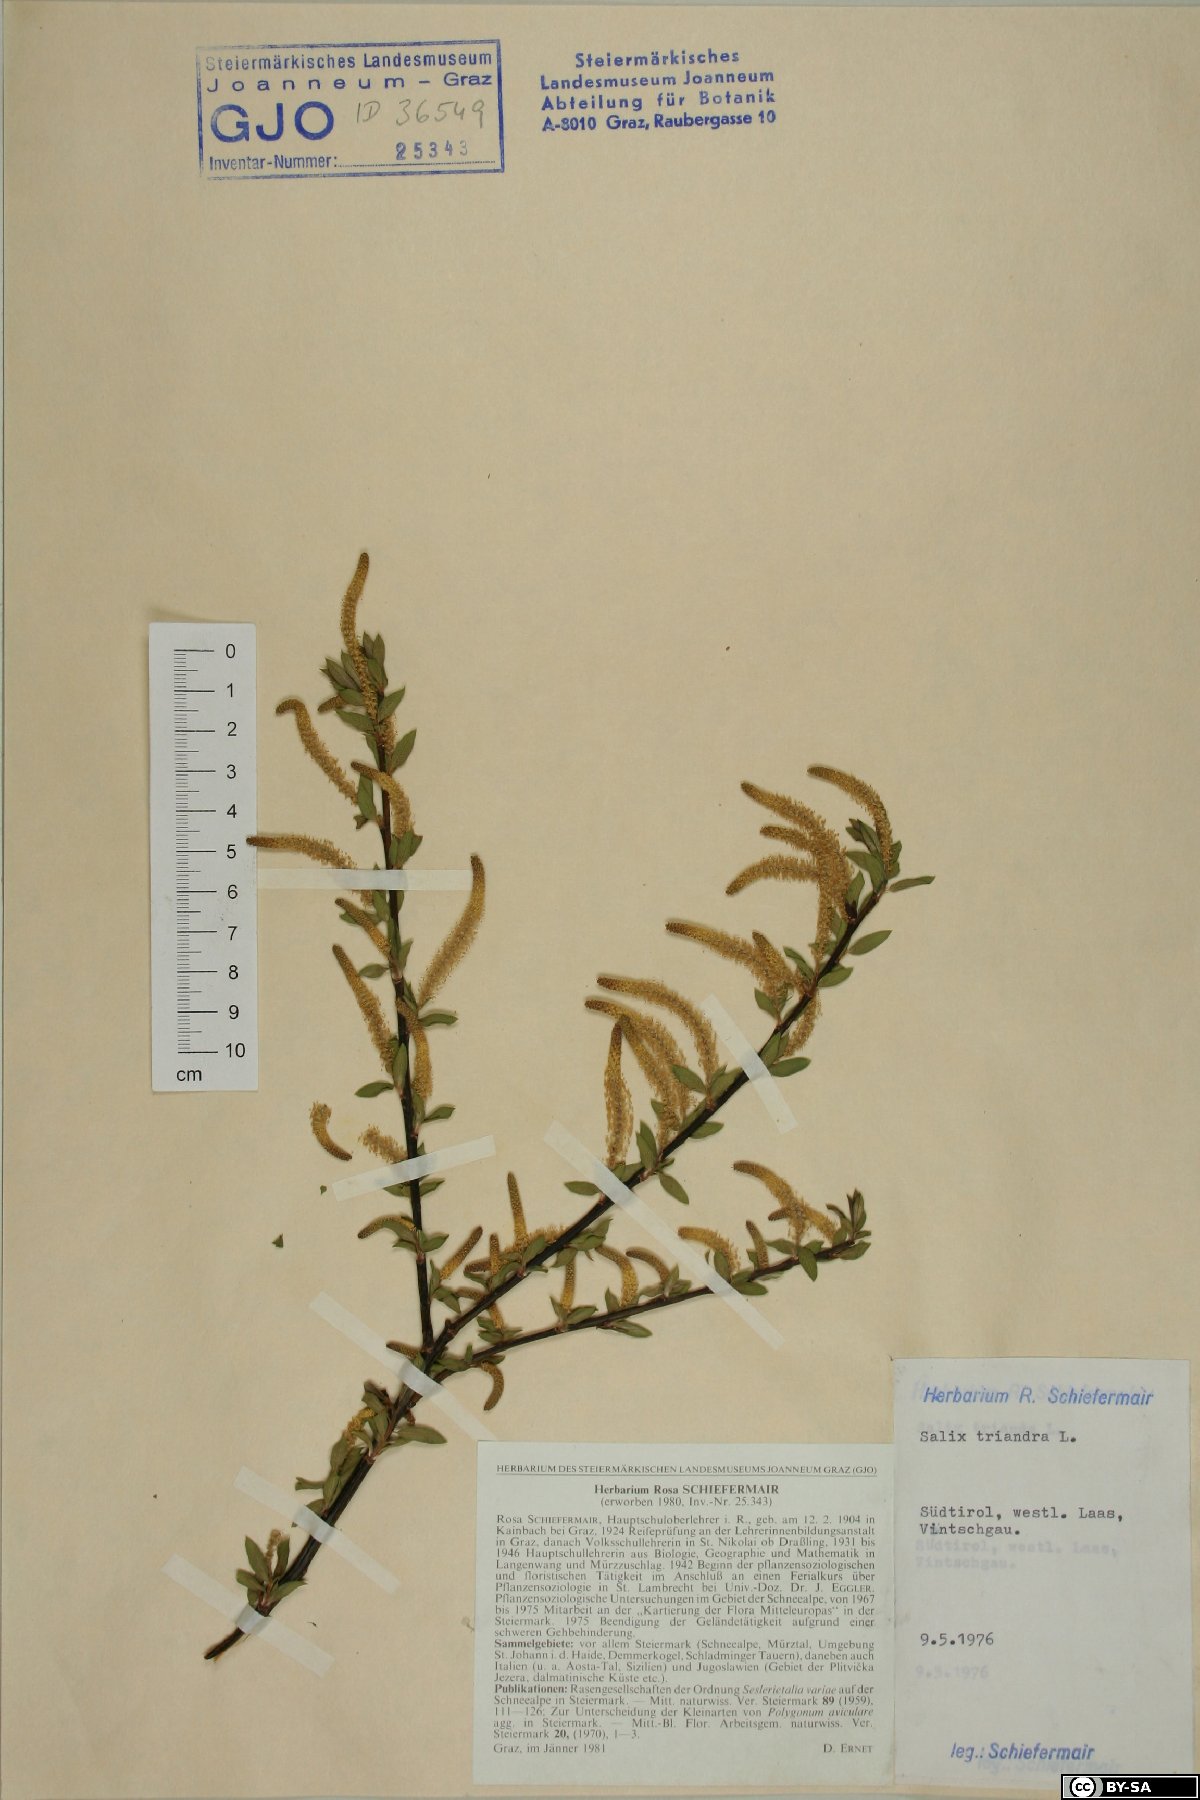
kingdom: Plantae
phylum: Tracheophyta
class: Magnoliopsida
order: Malpighiales
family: Salicaceae
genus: Salix
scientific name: Salix triandra
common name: Almond willow
